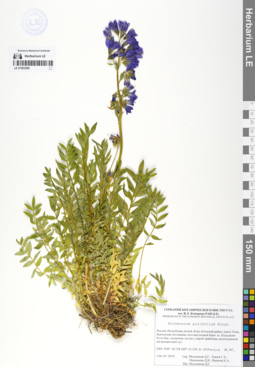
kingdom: Plantae
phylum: Tracheophyta
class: Magnoliopsida
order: Ericales
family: Polemoniaceae
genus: Polemonium
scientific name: Polemonium pulchellum
